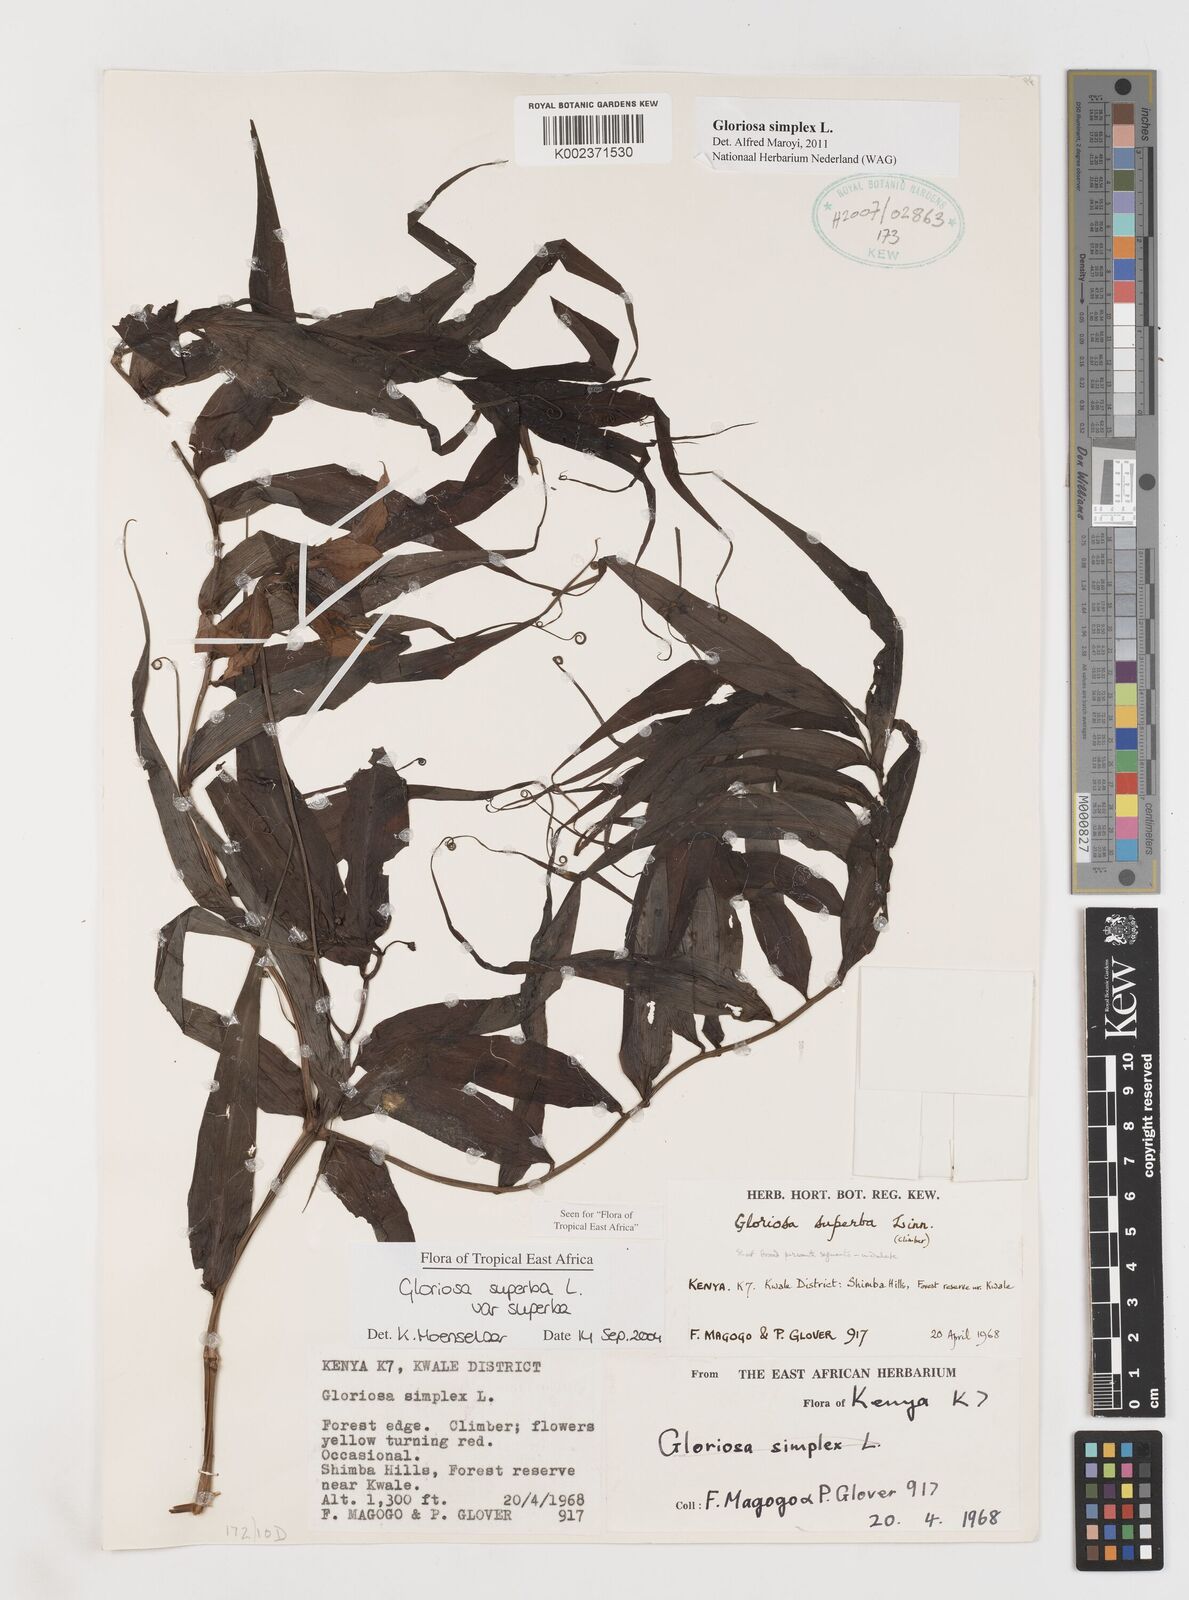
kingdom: Plantae
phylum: Tracheophyta
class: Liliopsida
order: Liliales
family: Colchicaceae
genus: Gloriosa
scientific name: Gloriosa simplex
